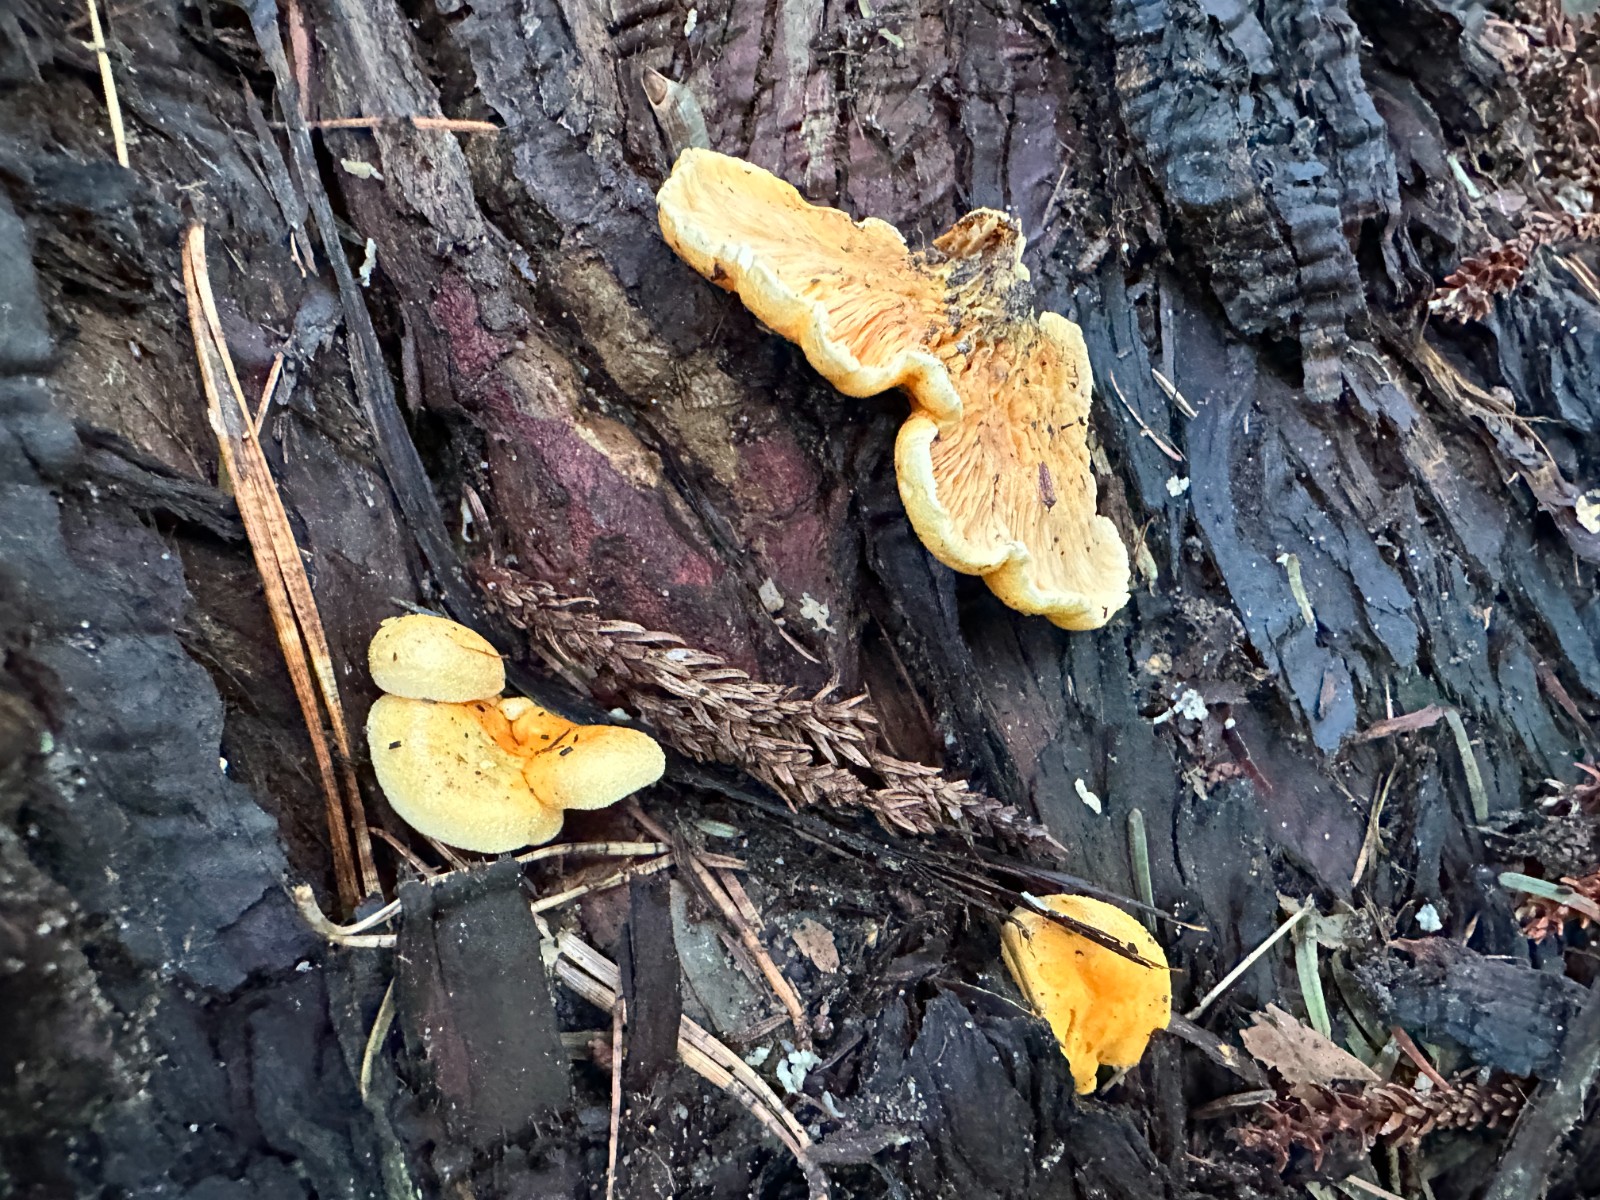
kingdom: Fungi
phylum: Basidiomycota
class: Agaricomycetes
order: Boletales
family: Hygrophoropsidaceae
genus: Hygrophoropsis
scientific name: Hygrophoropsis aurantiaca
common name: almindelig orangekantarel
